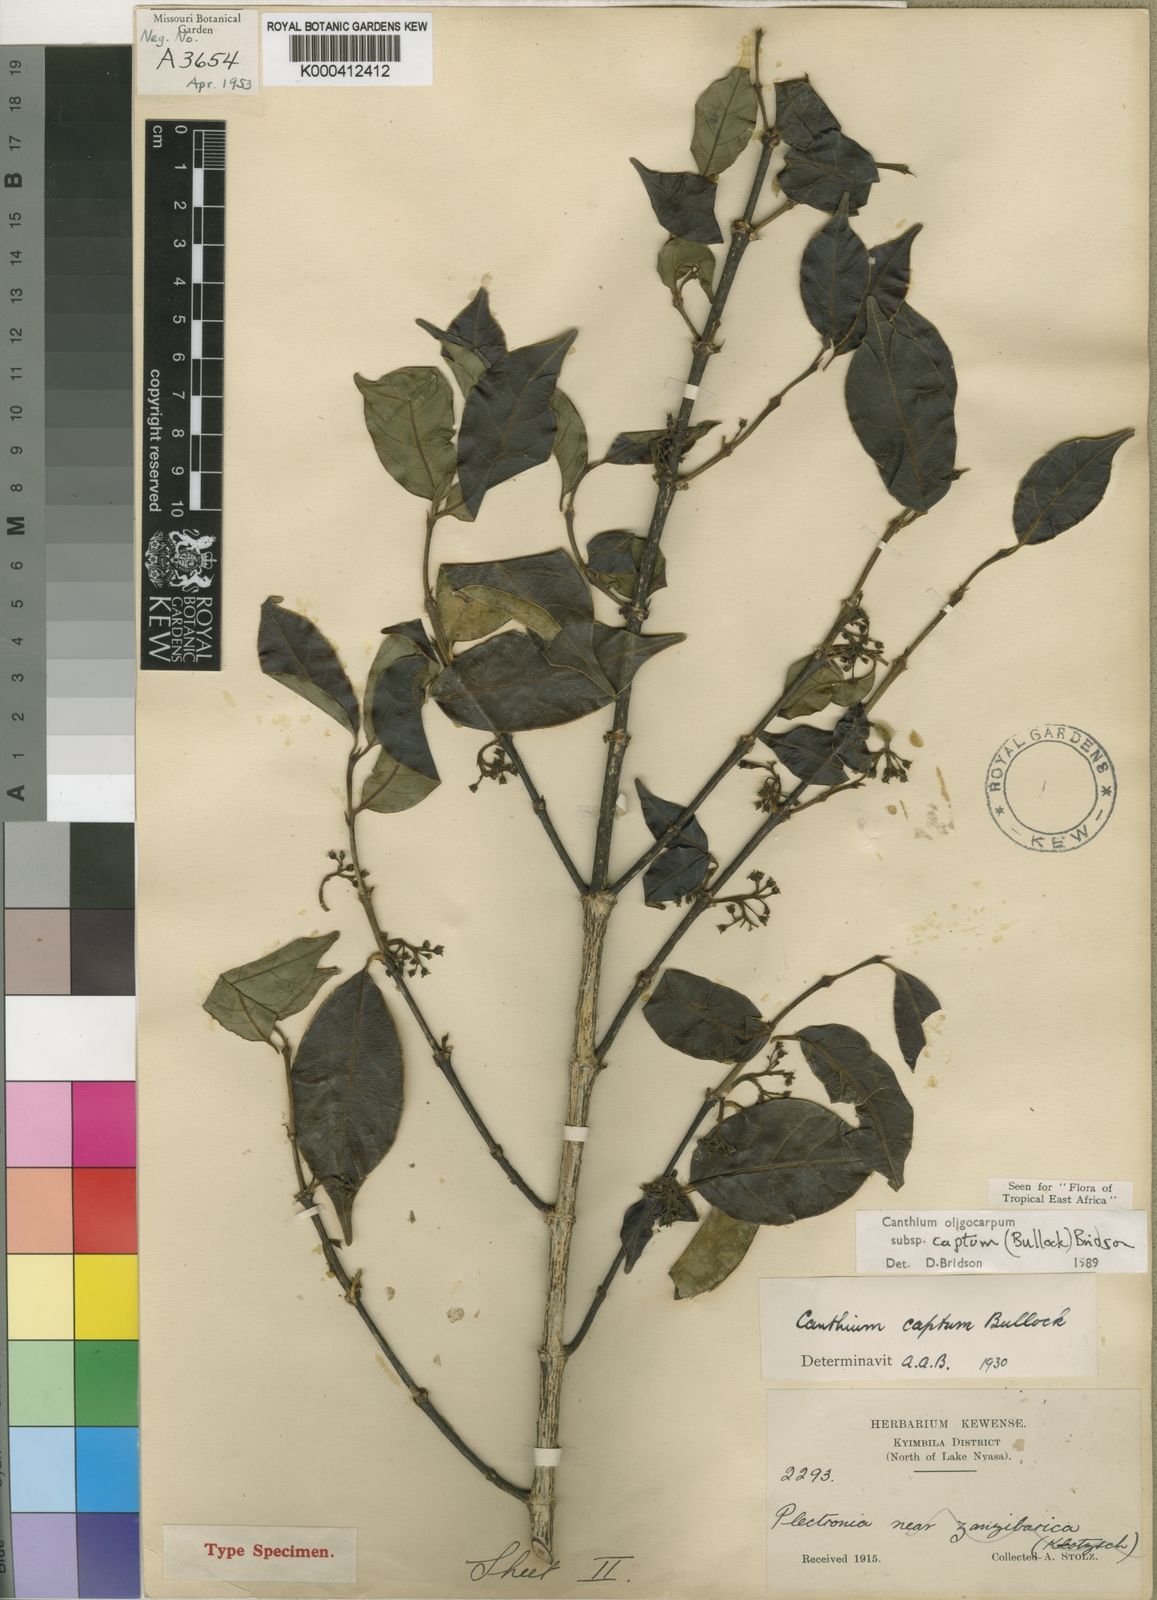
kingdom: Plantae
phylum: Tracheophyta
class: Magnoliopsida
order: Gentianales
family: Rubiaceae
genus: Canthium
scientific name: Canthium oligocarpum
